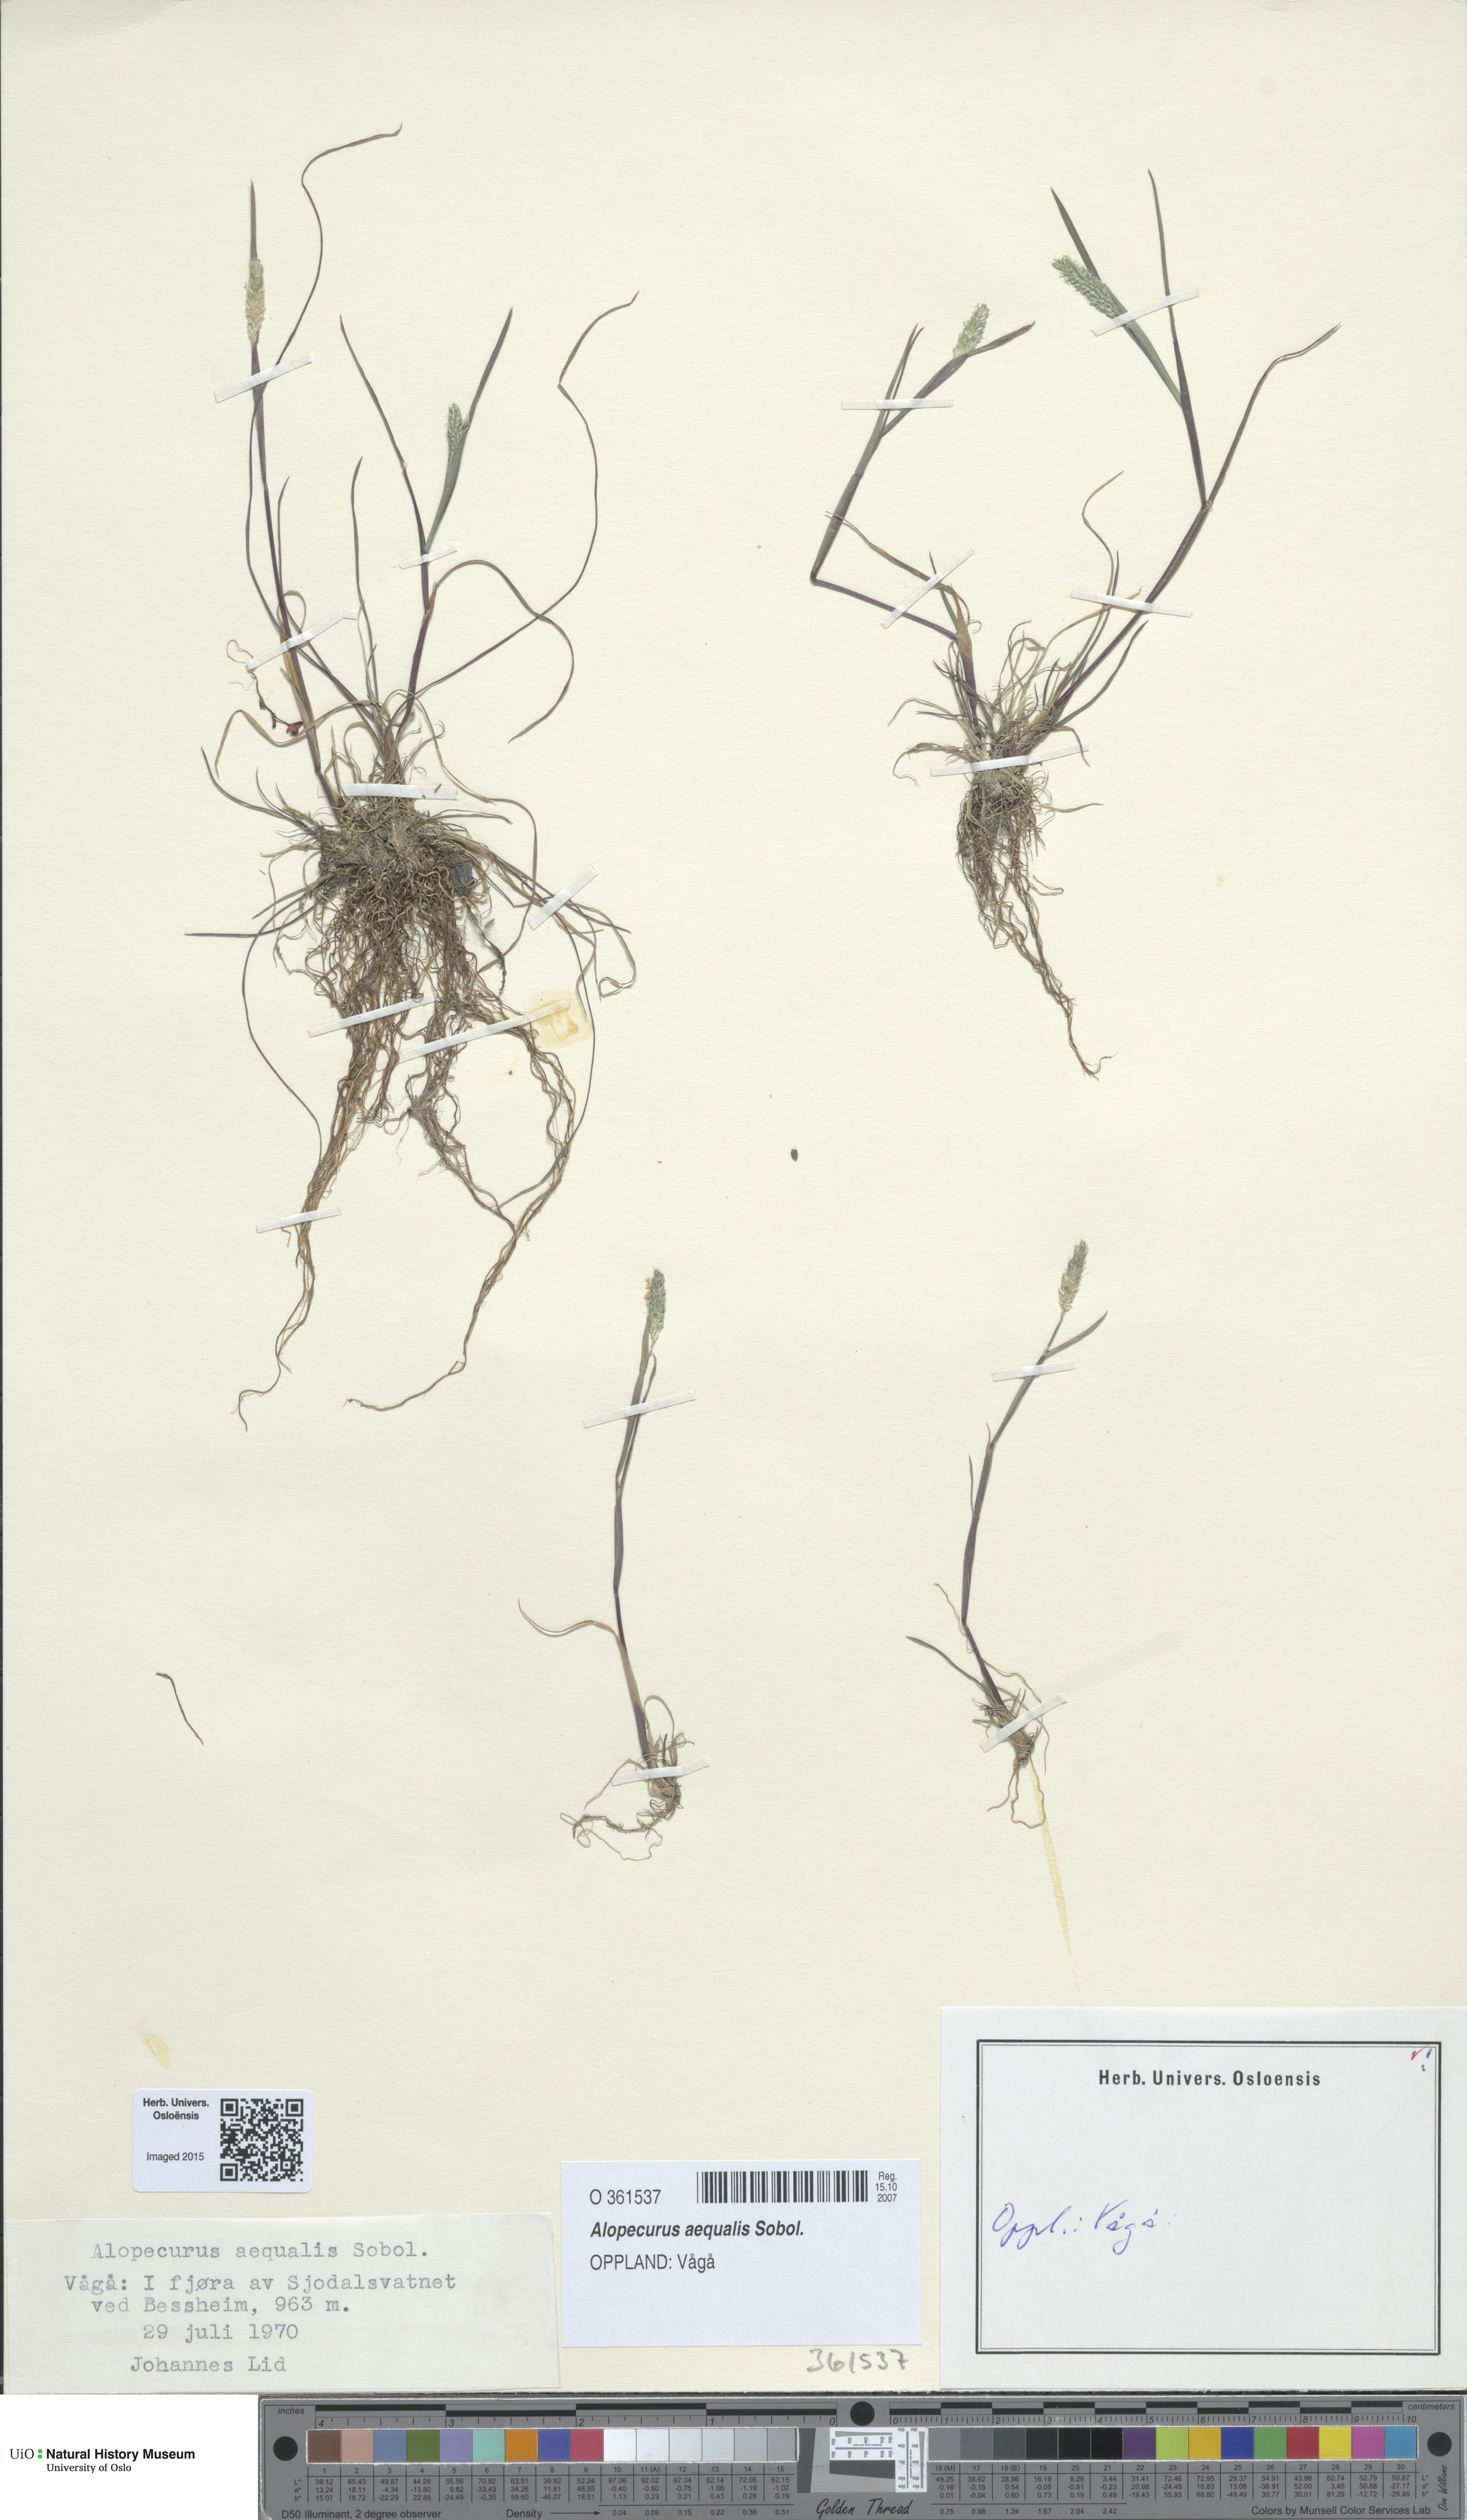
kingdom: Plantae
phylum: Tracheophyta
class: Liliopsida
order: Poales
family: Poaceae
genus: Alopecurus
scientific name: Alopecurus aequalis
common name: Orange foxtail
